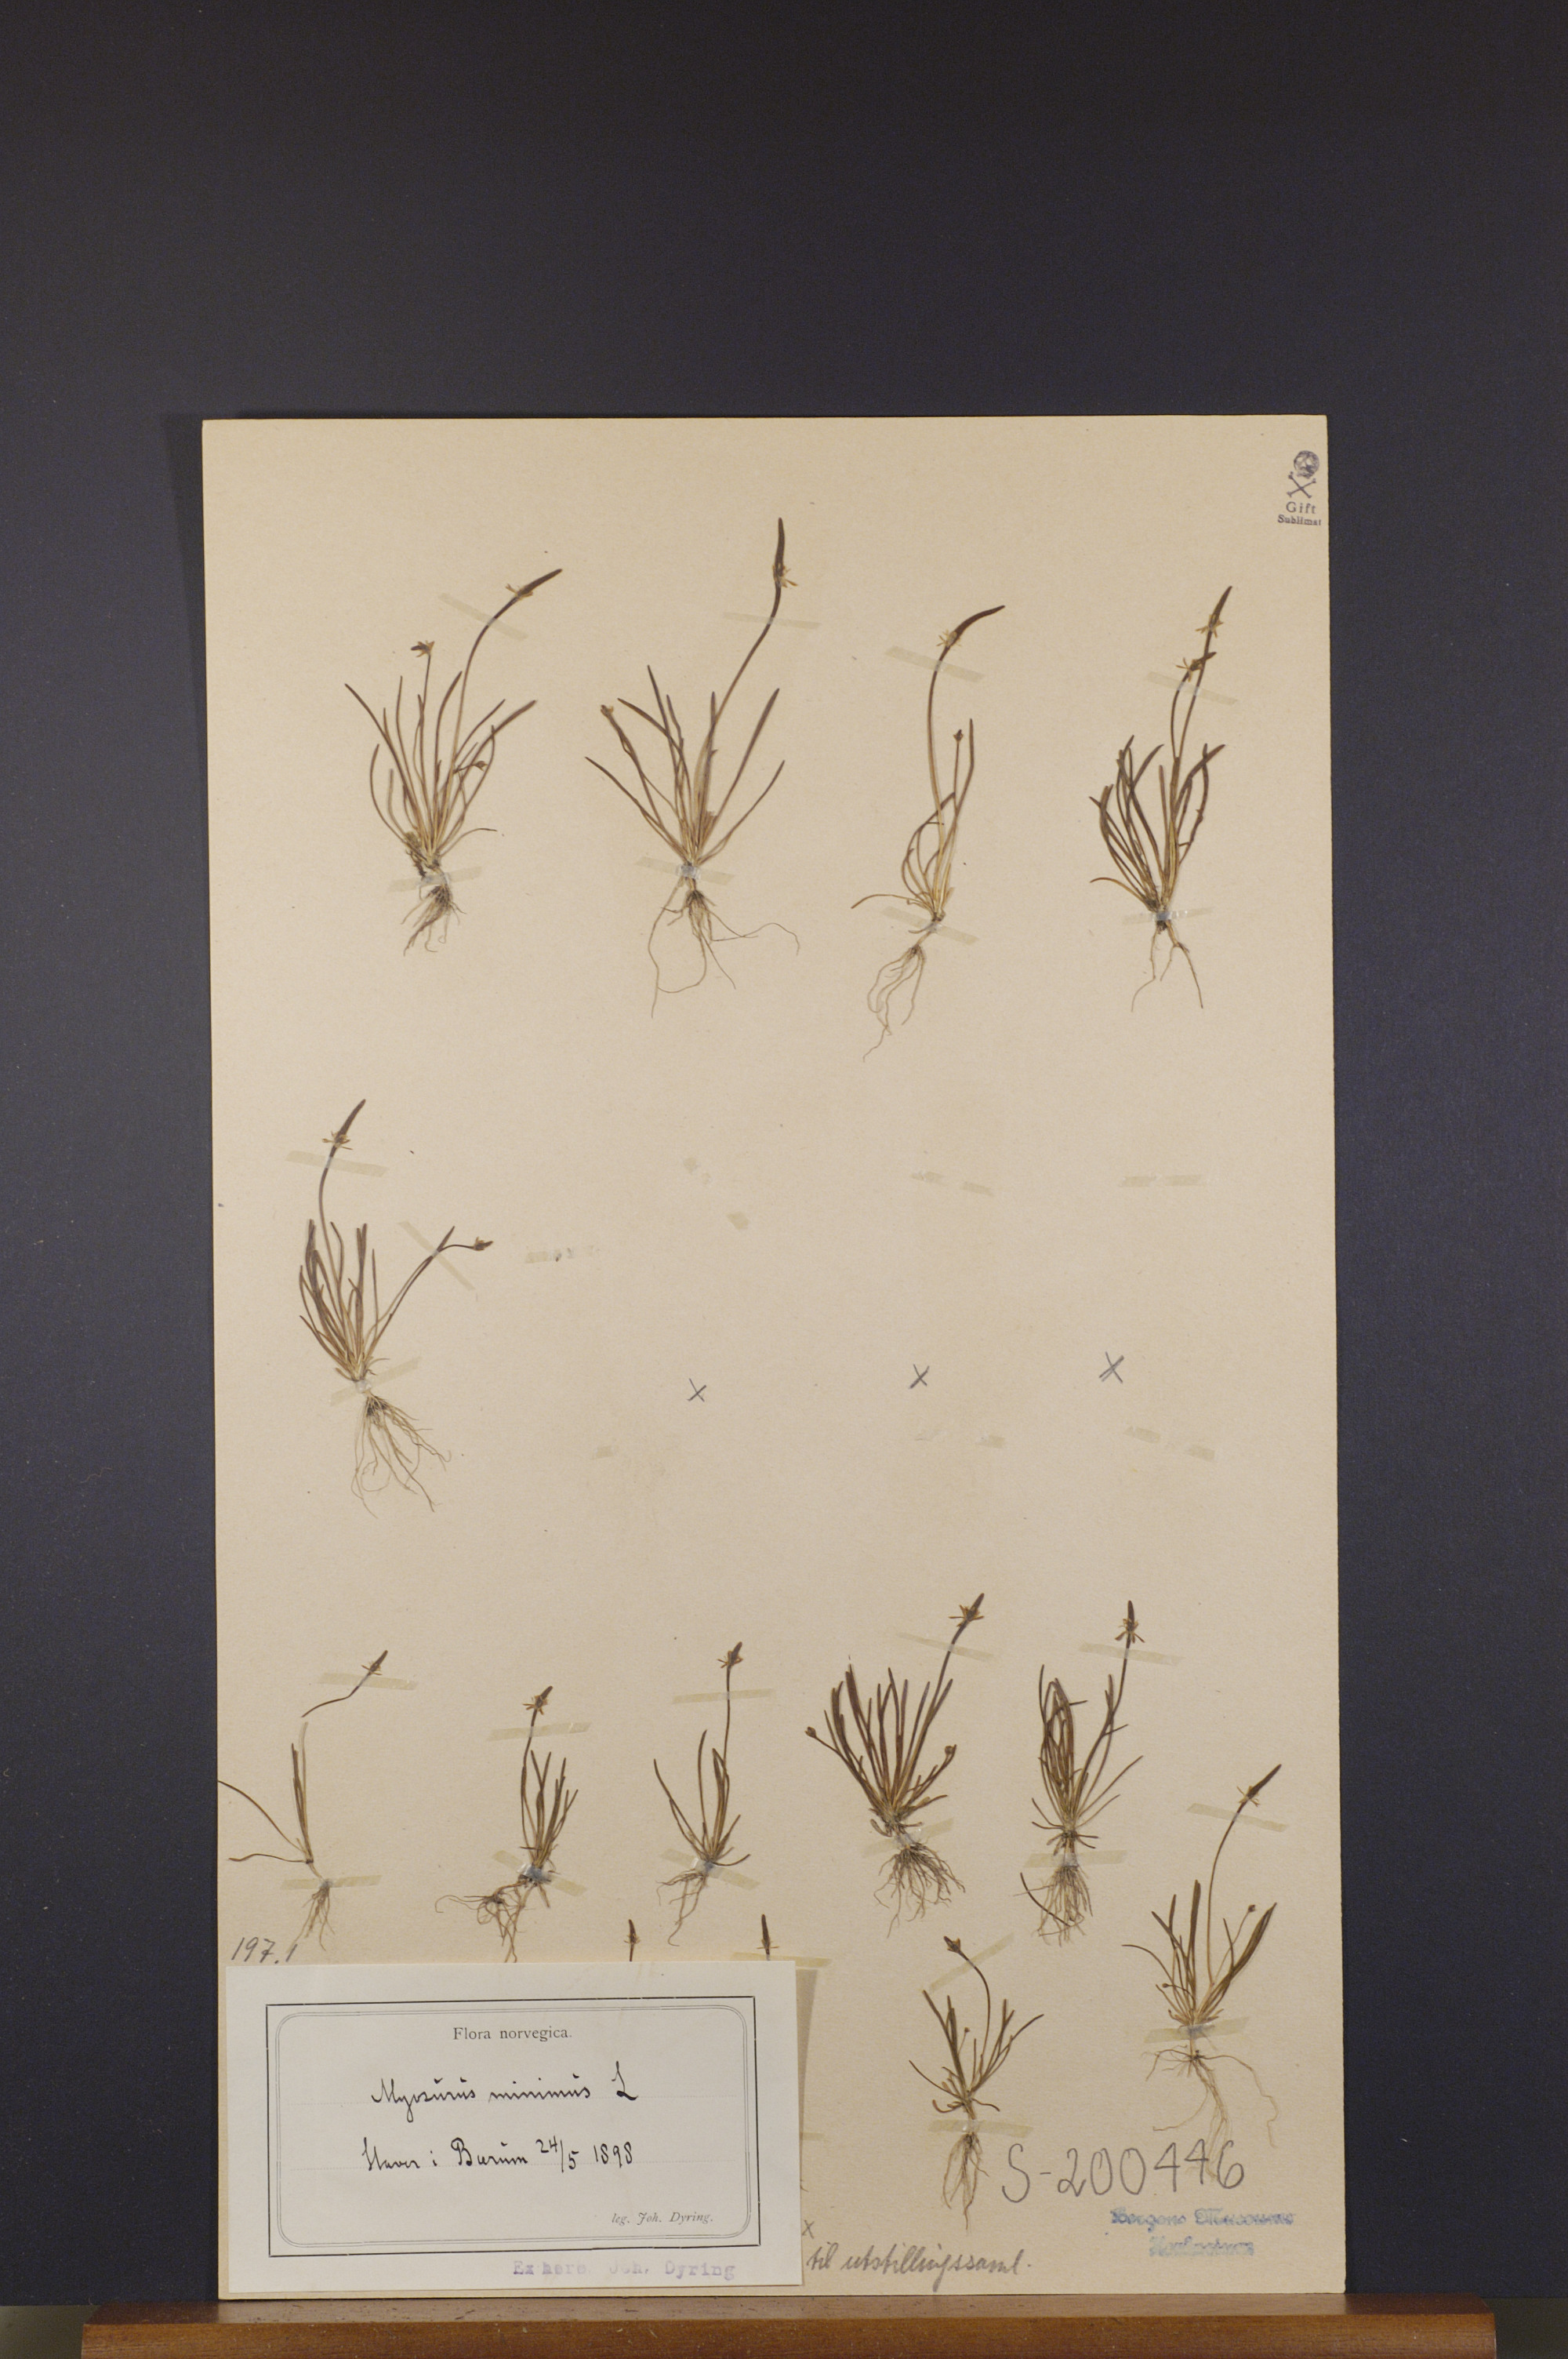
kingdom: Plantae
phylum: Tracheophyta
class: Magnoliopsida
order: Ranunculales
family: Ranunculaceae
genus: Myosurus
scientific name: Myosurus minimus
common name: Mousetail
